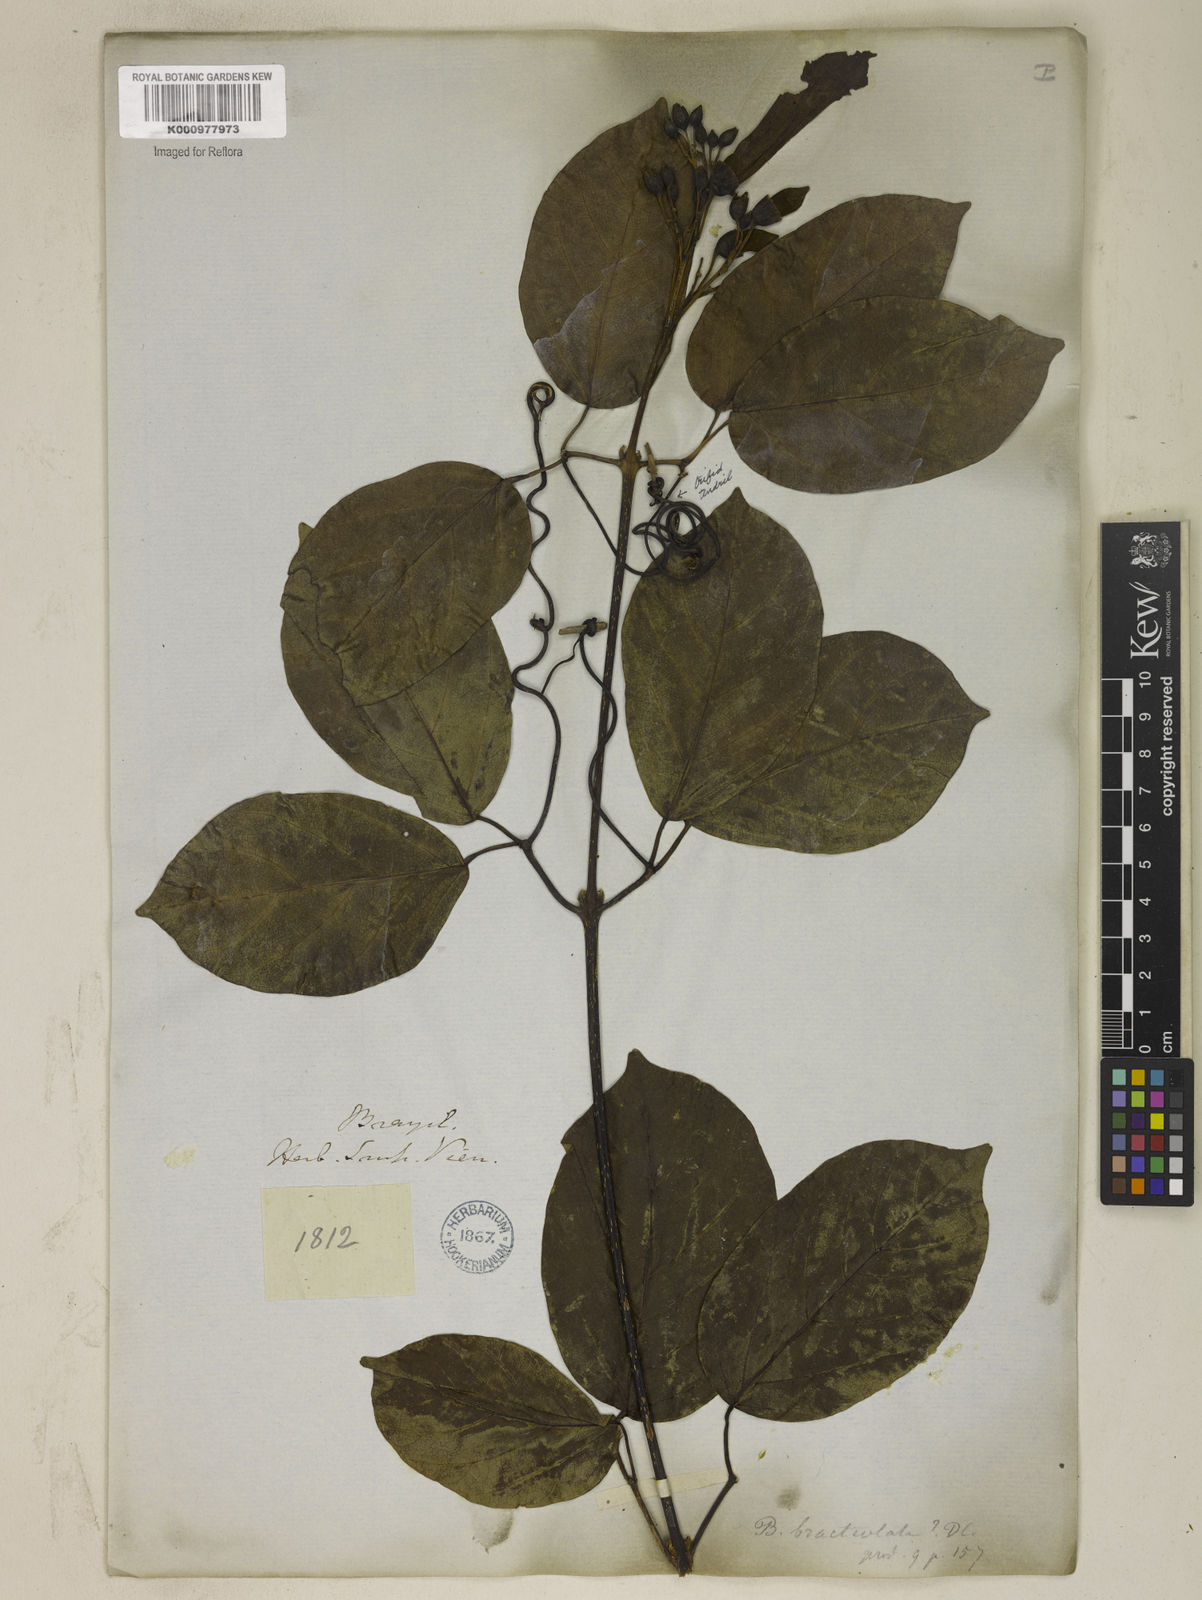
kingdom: Plantae
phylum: Tracheophyta
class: Magnoliopsida
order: Lamiales
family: Bignoniaceae
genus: Tanaecium
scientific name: Tanaecium pyramidatum
